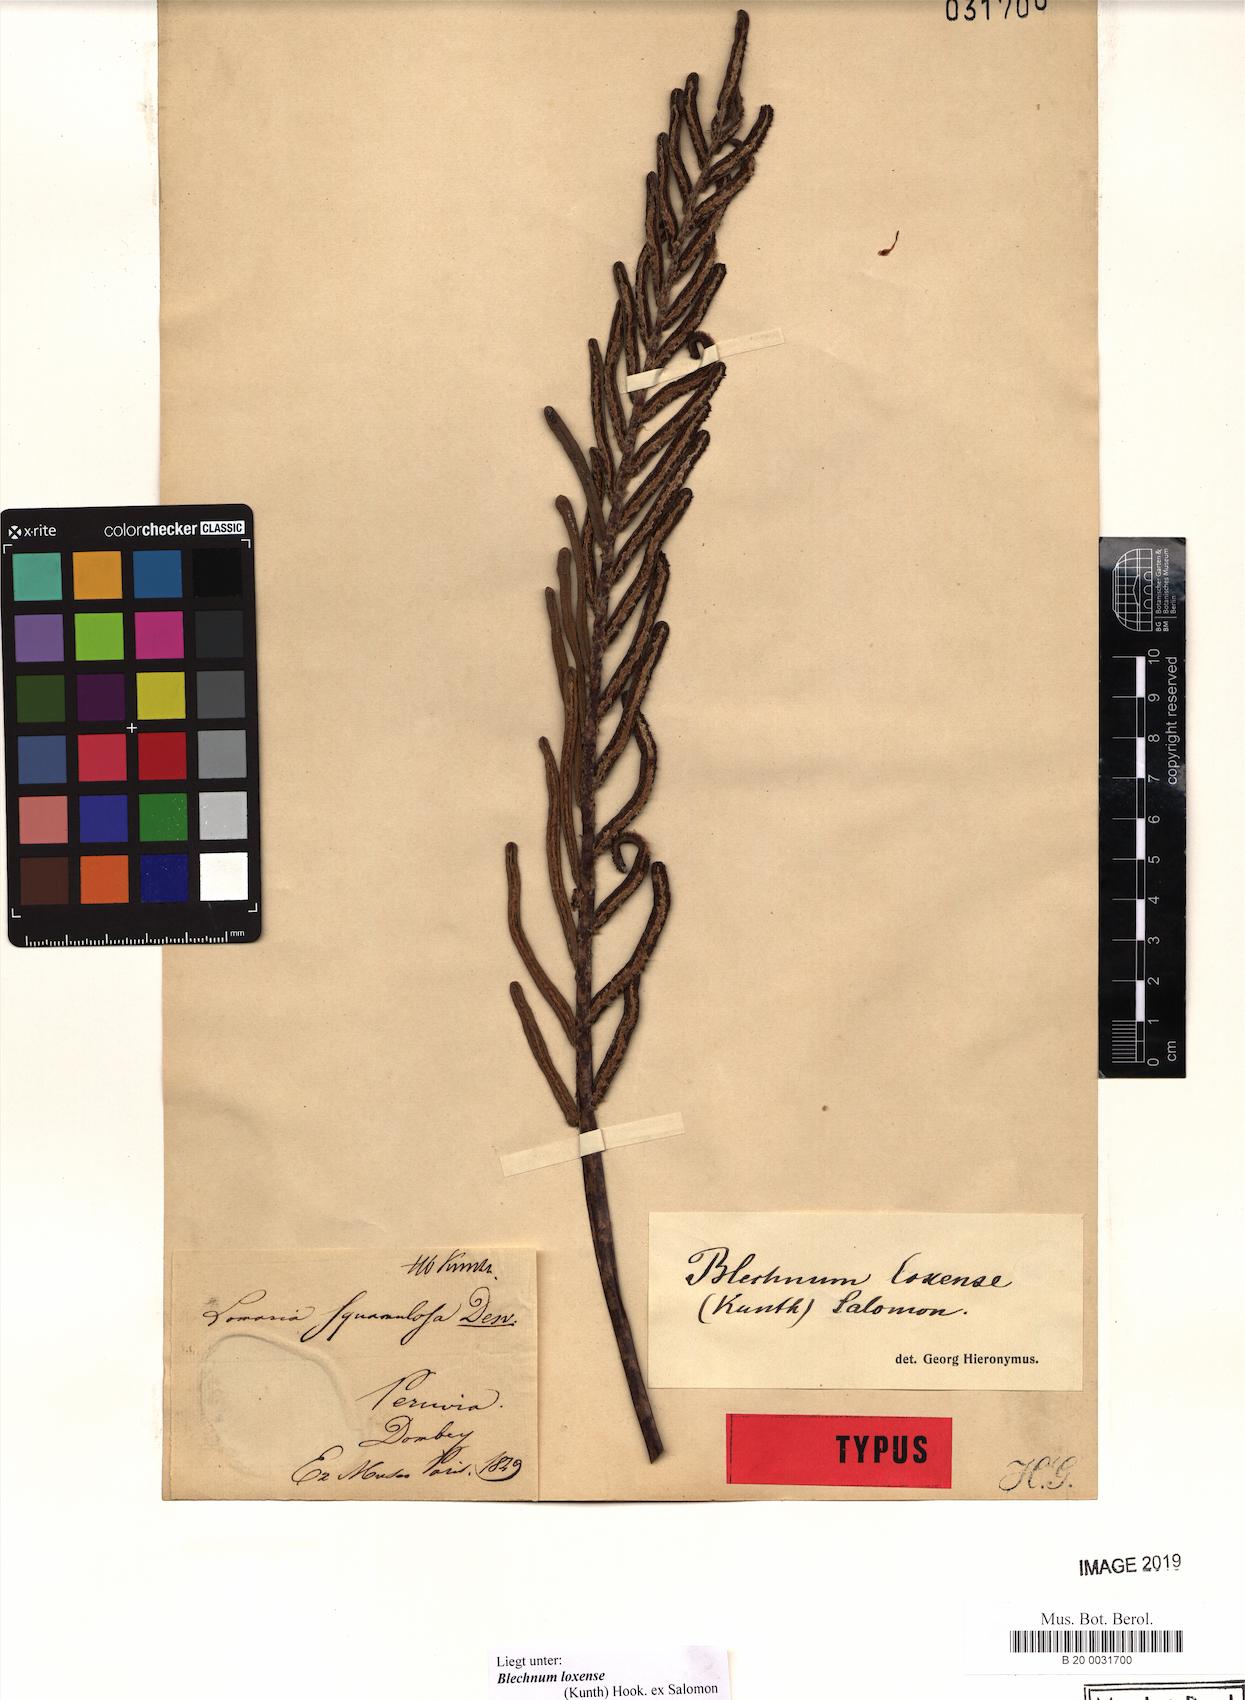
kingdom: Plantae
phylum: Tracheophyta
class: Polypodiopsida
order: Polypodiales
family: Blechnaceae
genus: Parablechnum
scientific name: Parablechnum loxense
